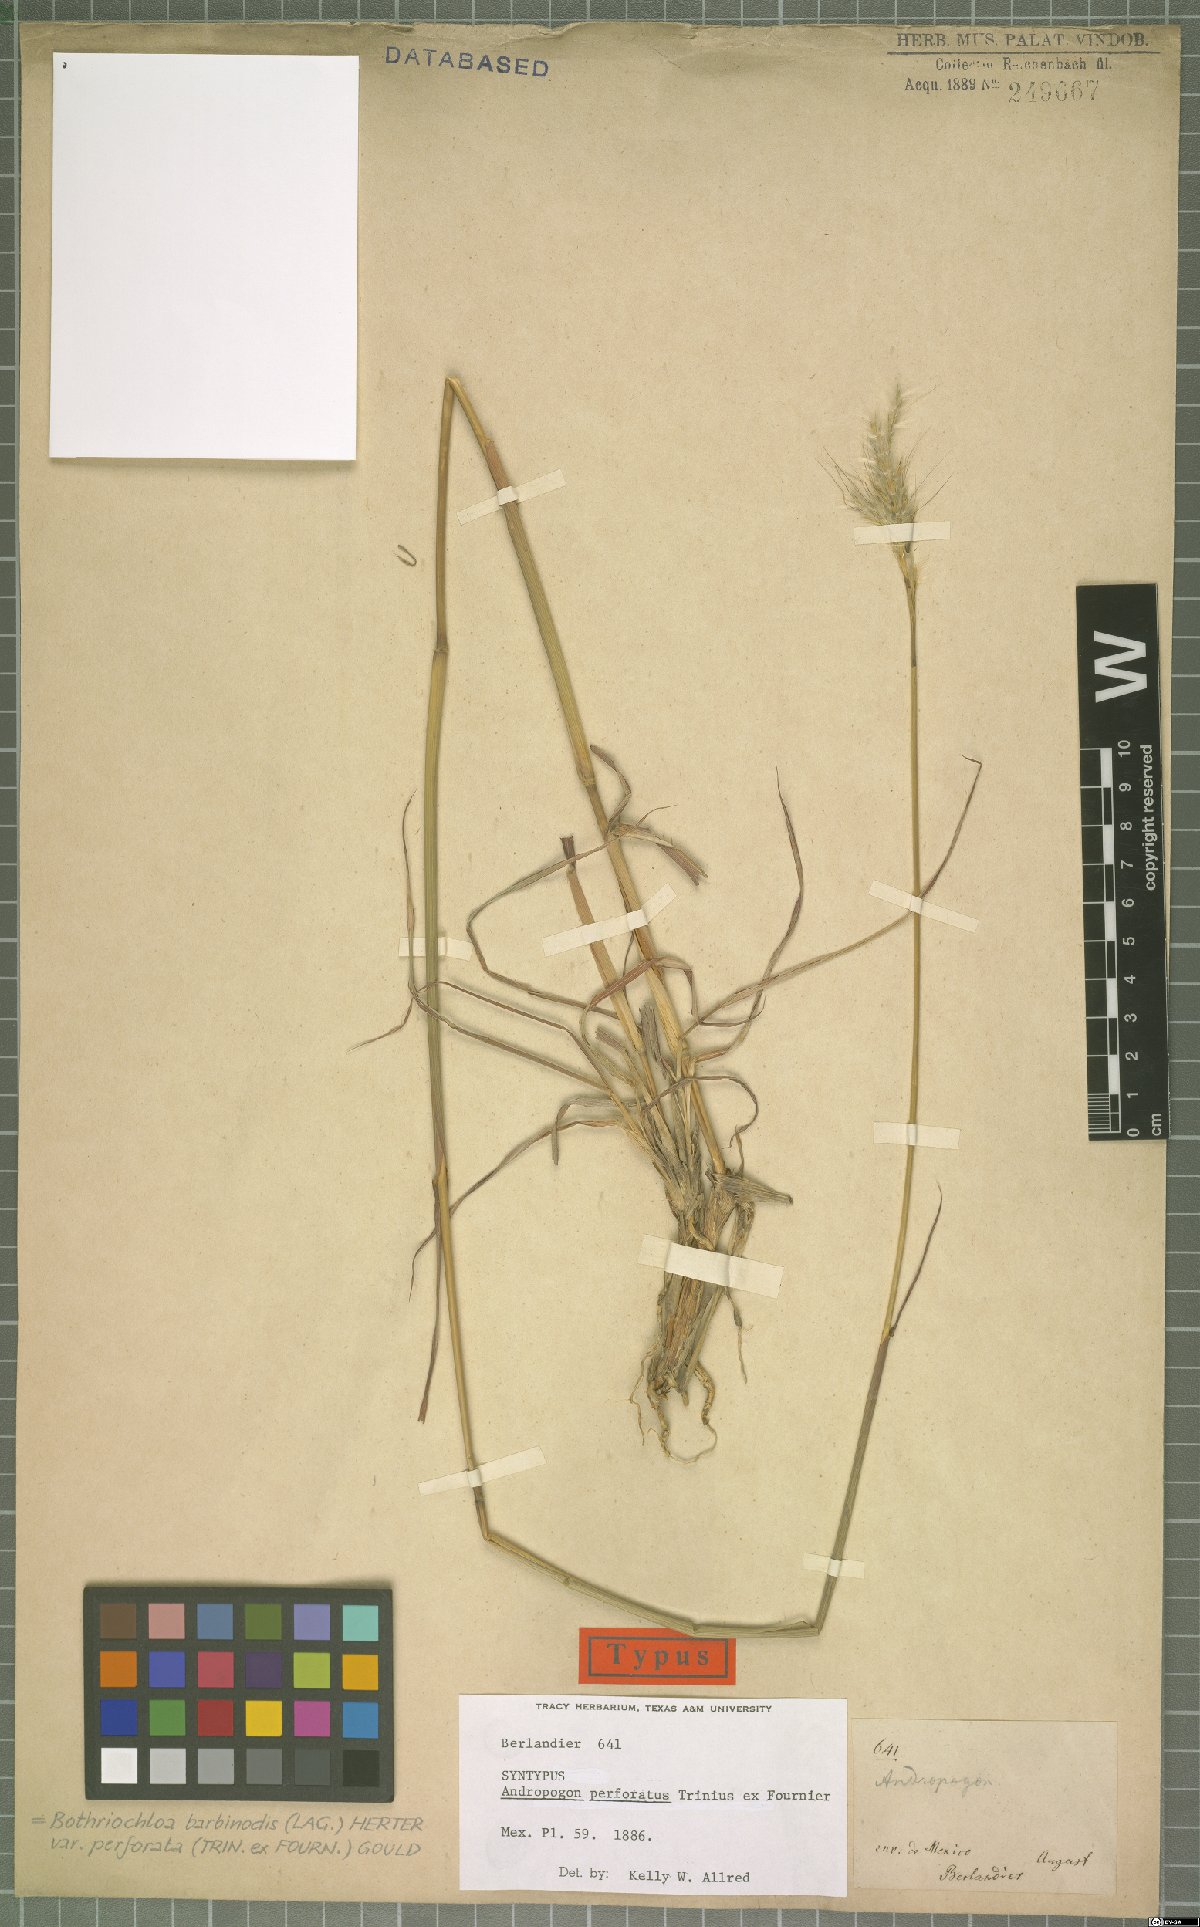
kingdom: Plantae
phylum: Tracheophyta
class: Liliopsida
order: Poales
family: Poaceae
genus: Bothriochloa
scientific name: Bothriochloa barbinodis
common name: Cane bluestem
